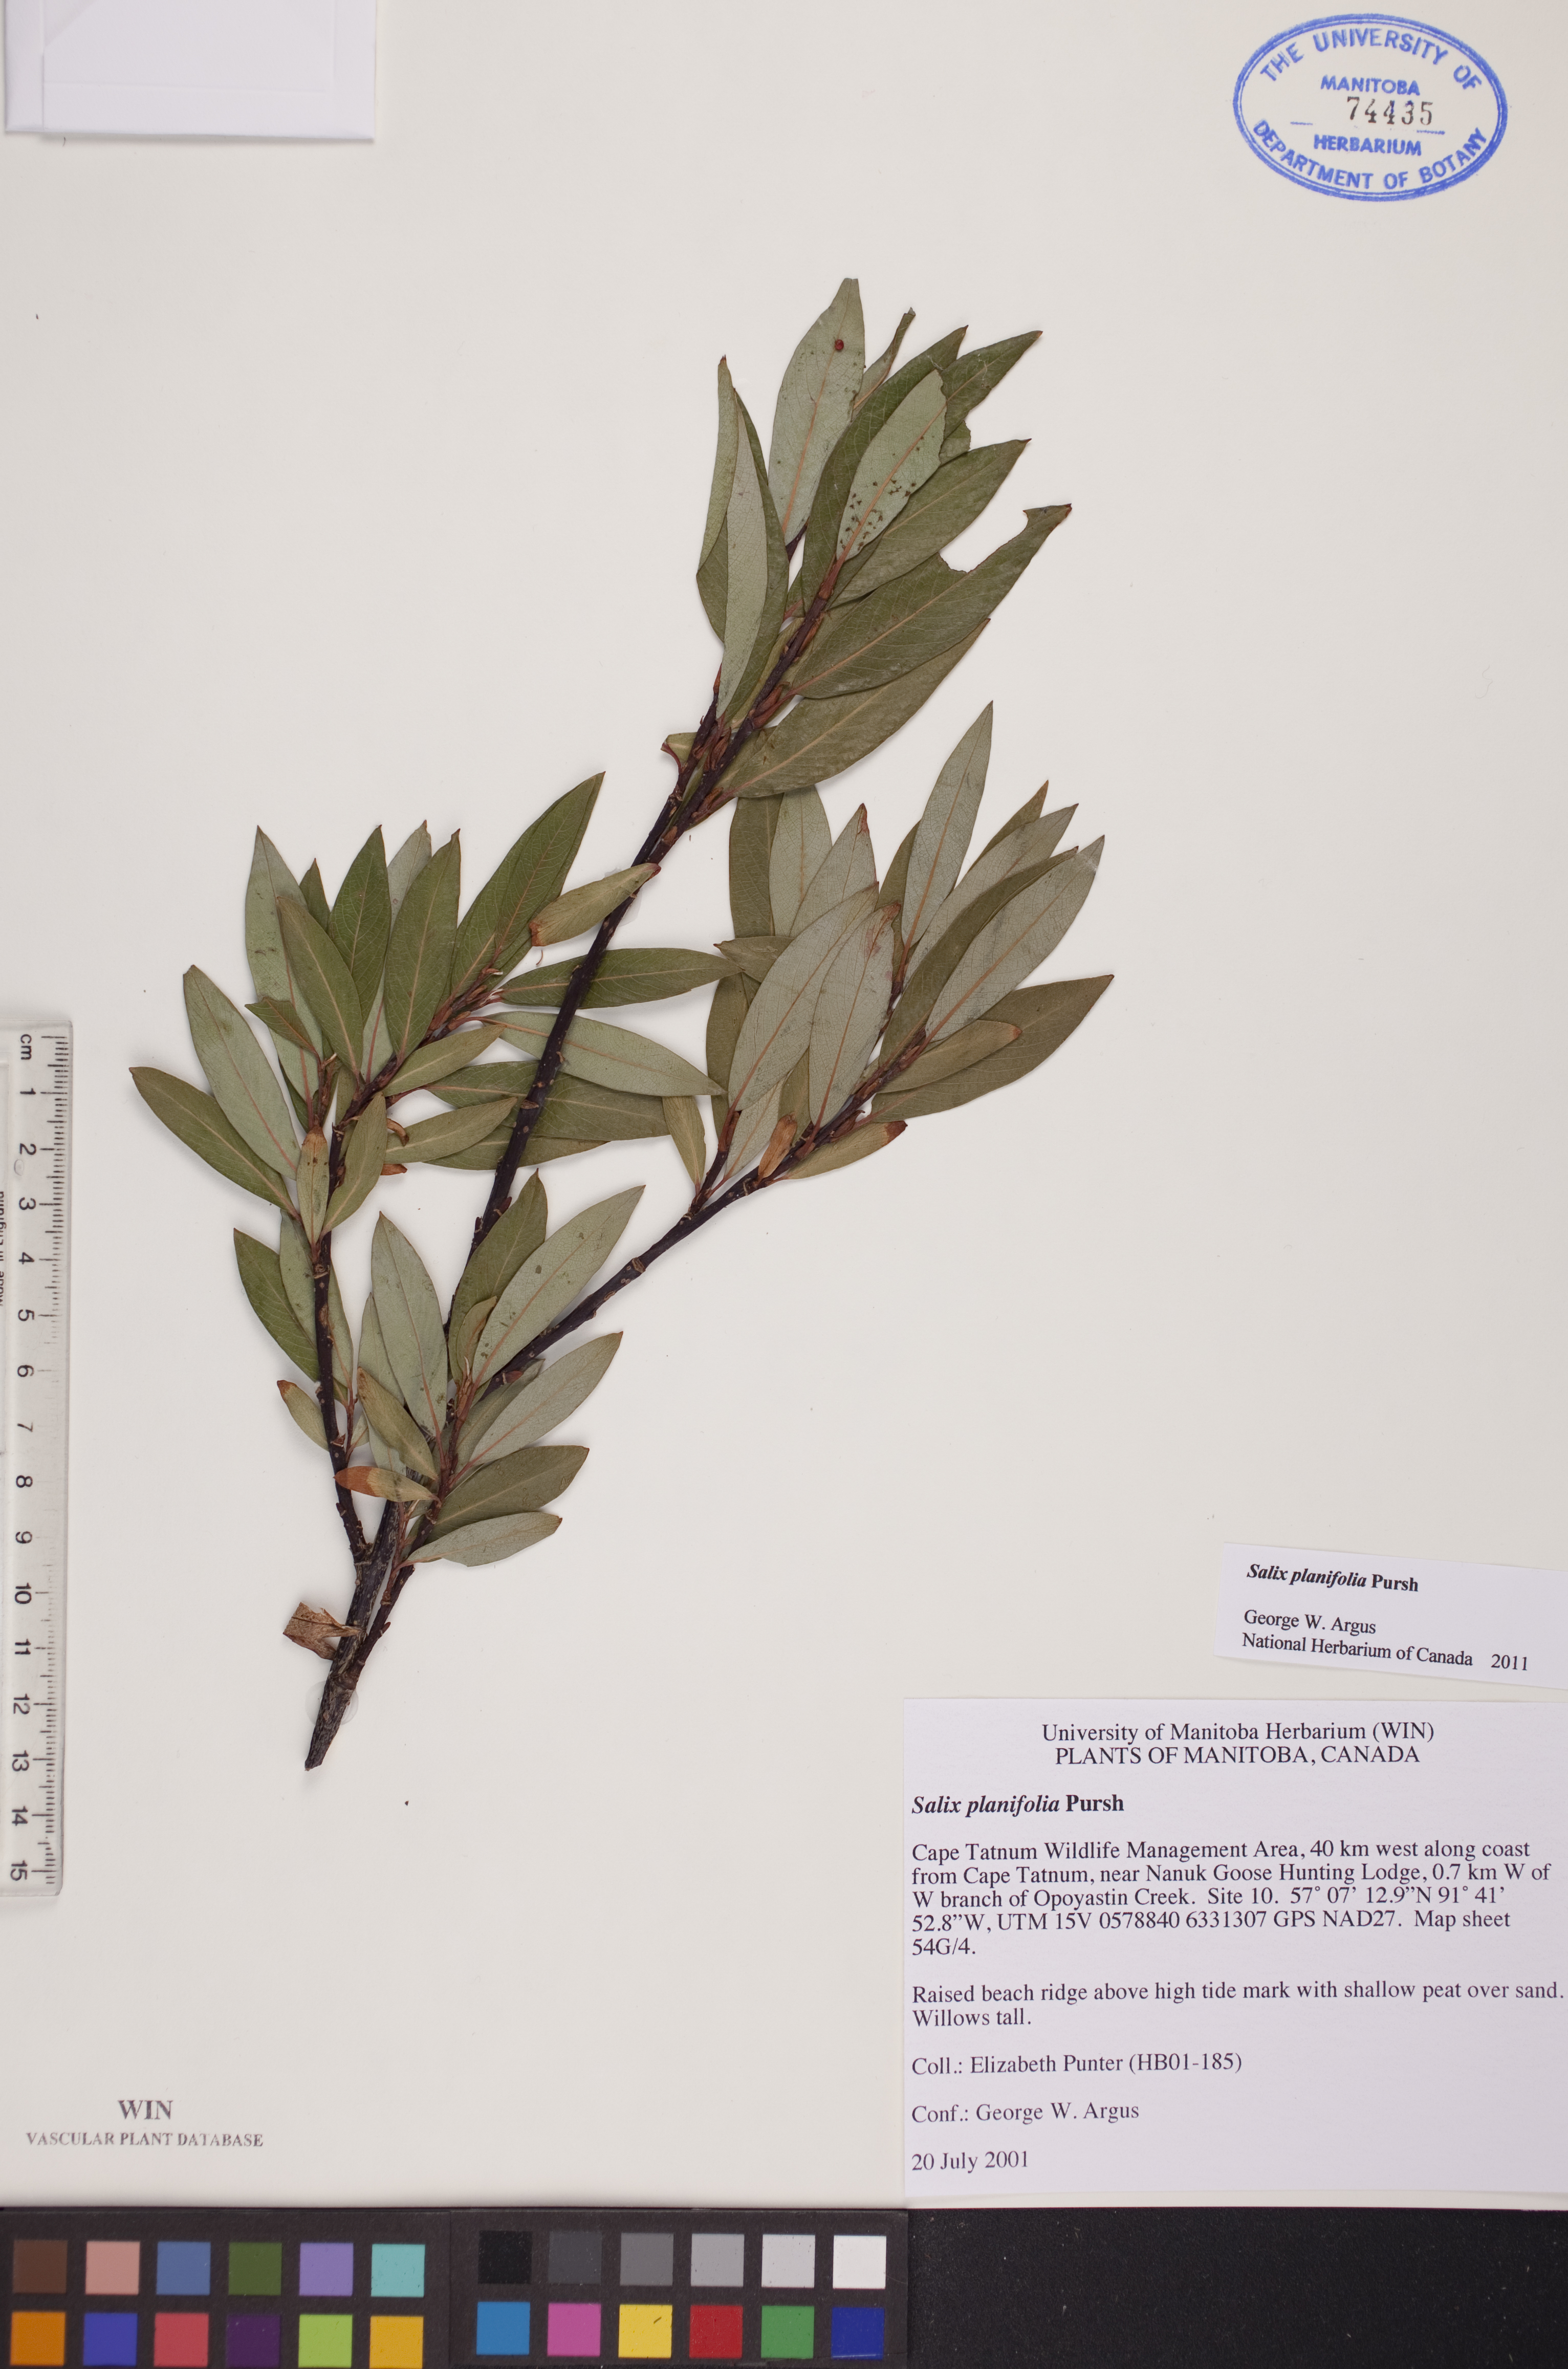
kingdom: Plantae
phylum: Tracheophyta
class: Magnoliopsida
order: Malpighiales
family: Salicaceae
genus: Salix
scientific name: Salix planifolia
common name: Mountain willow
